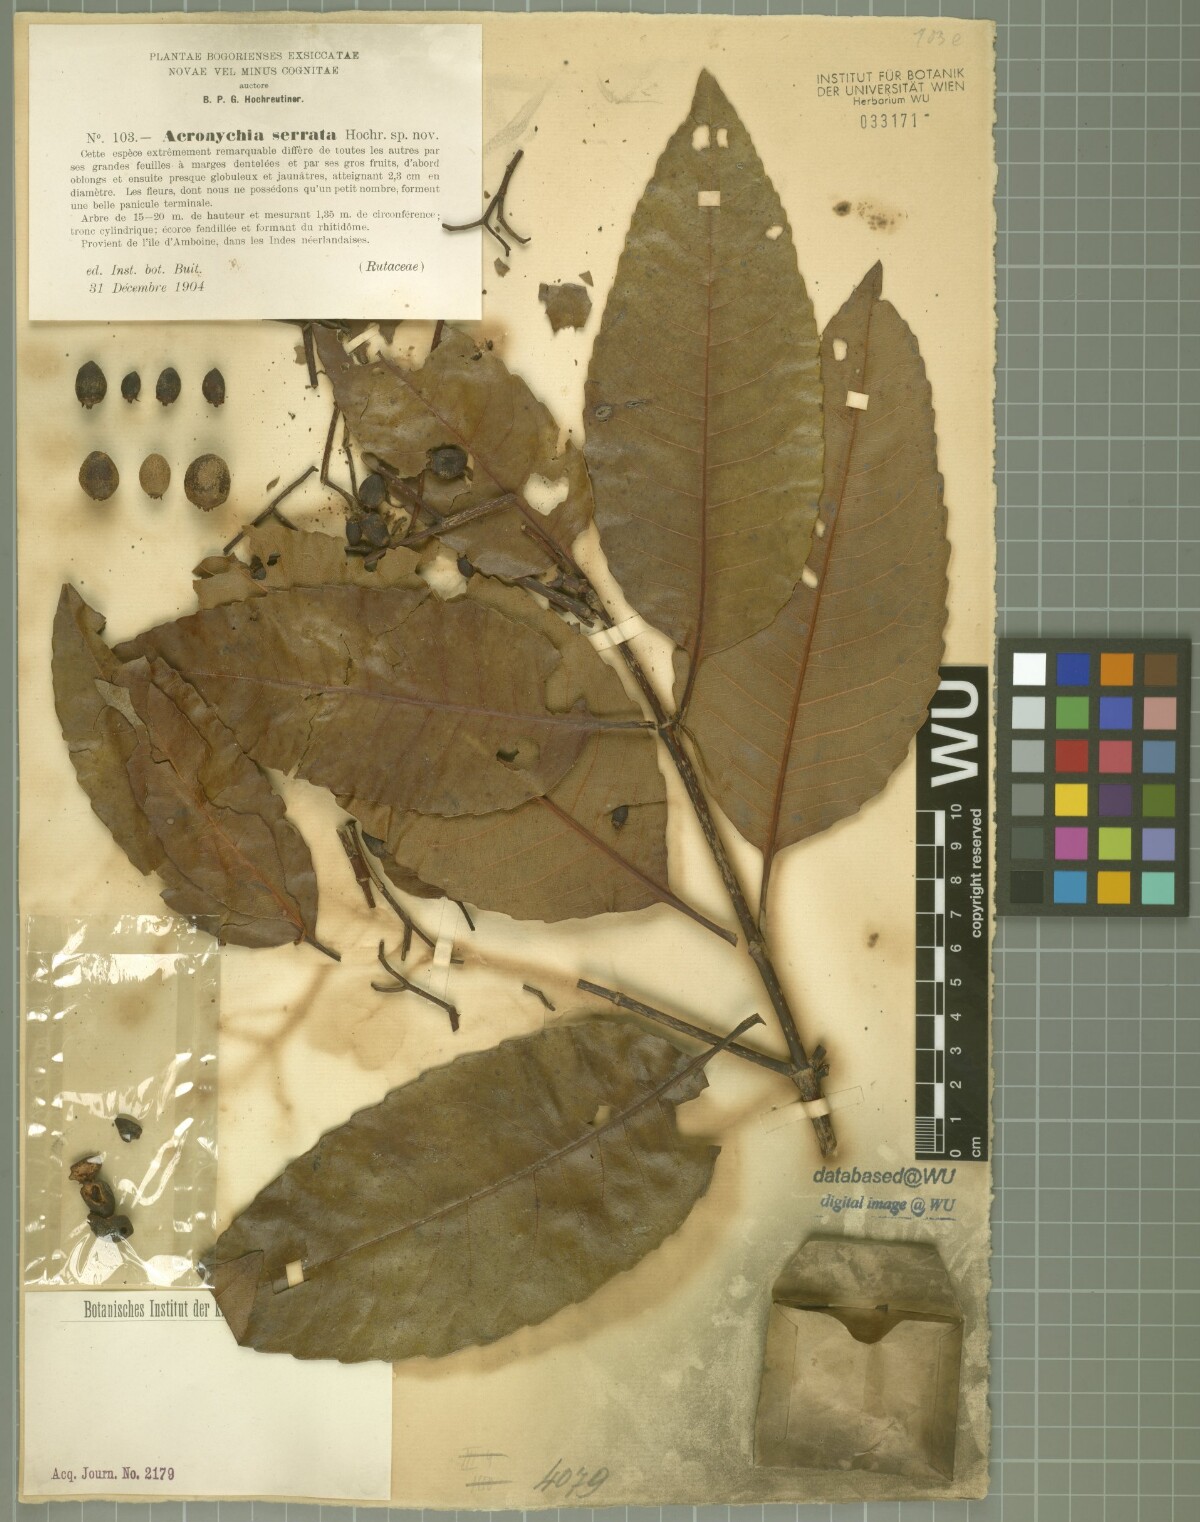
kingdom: Plantae
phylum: Tracheophyta
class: Magnoliopsida
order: Oxalidales
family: Cunoniaceae
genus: Schizomeria
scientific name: Schizomeria serrata
